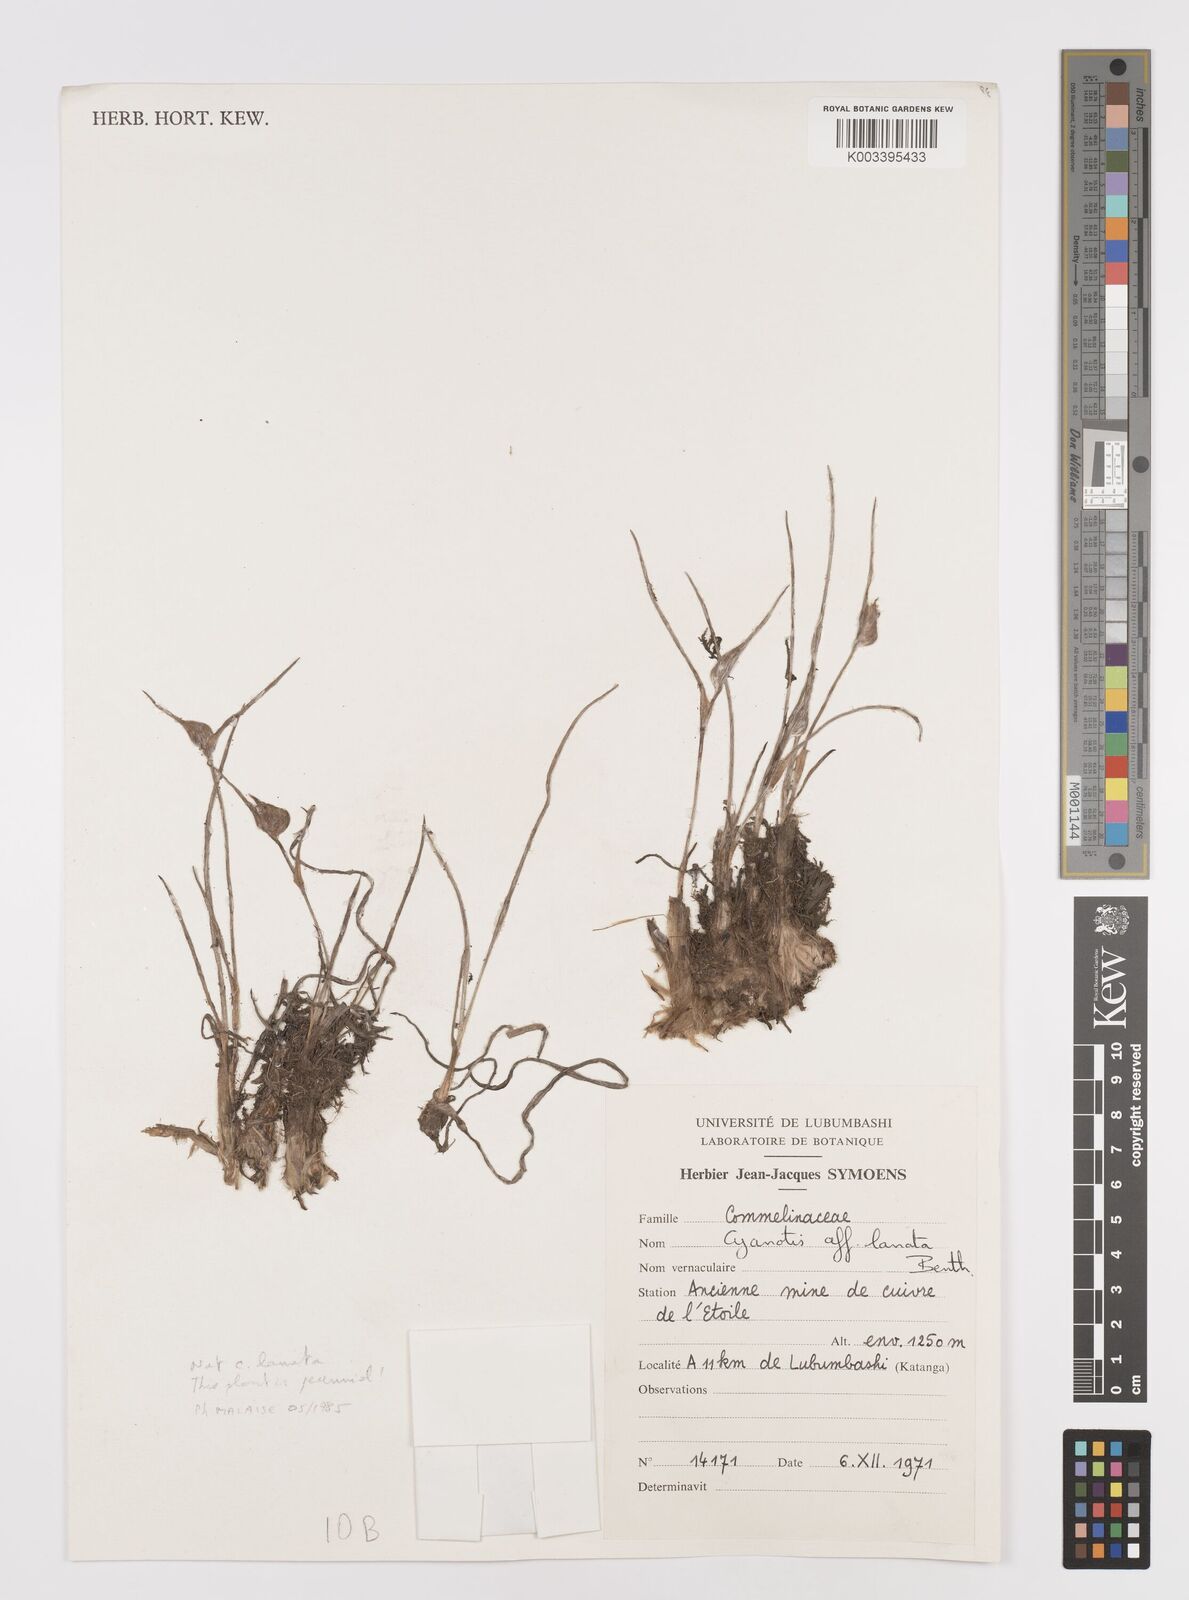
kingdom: Plantae
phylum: Tracheophyta
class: Liliopsida
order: Commelinales
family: Commelinaceae
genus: Cyanotis
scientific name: Cyanotis lanata
